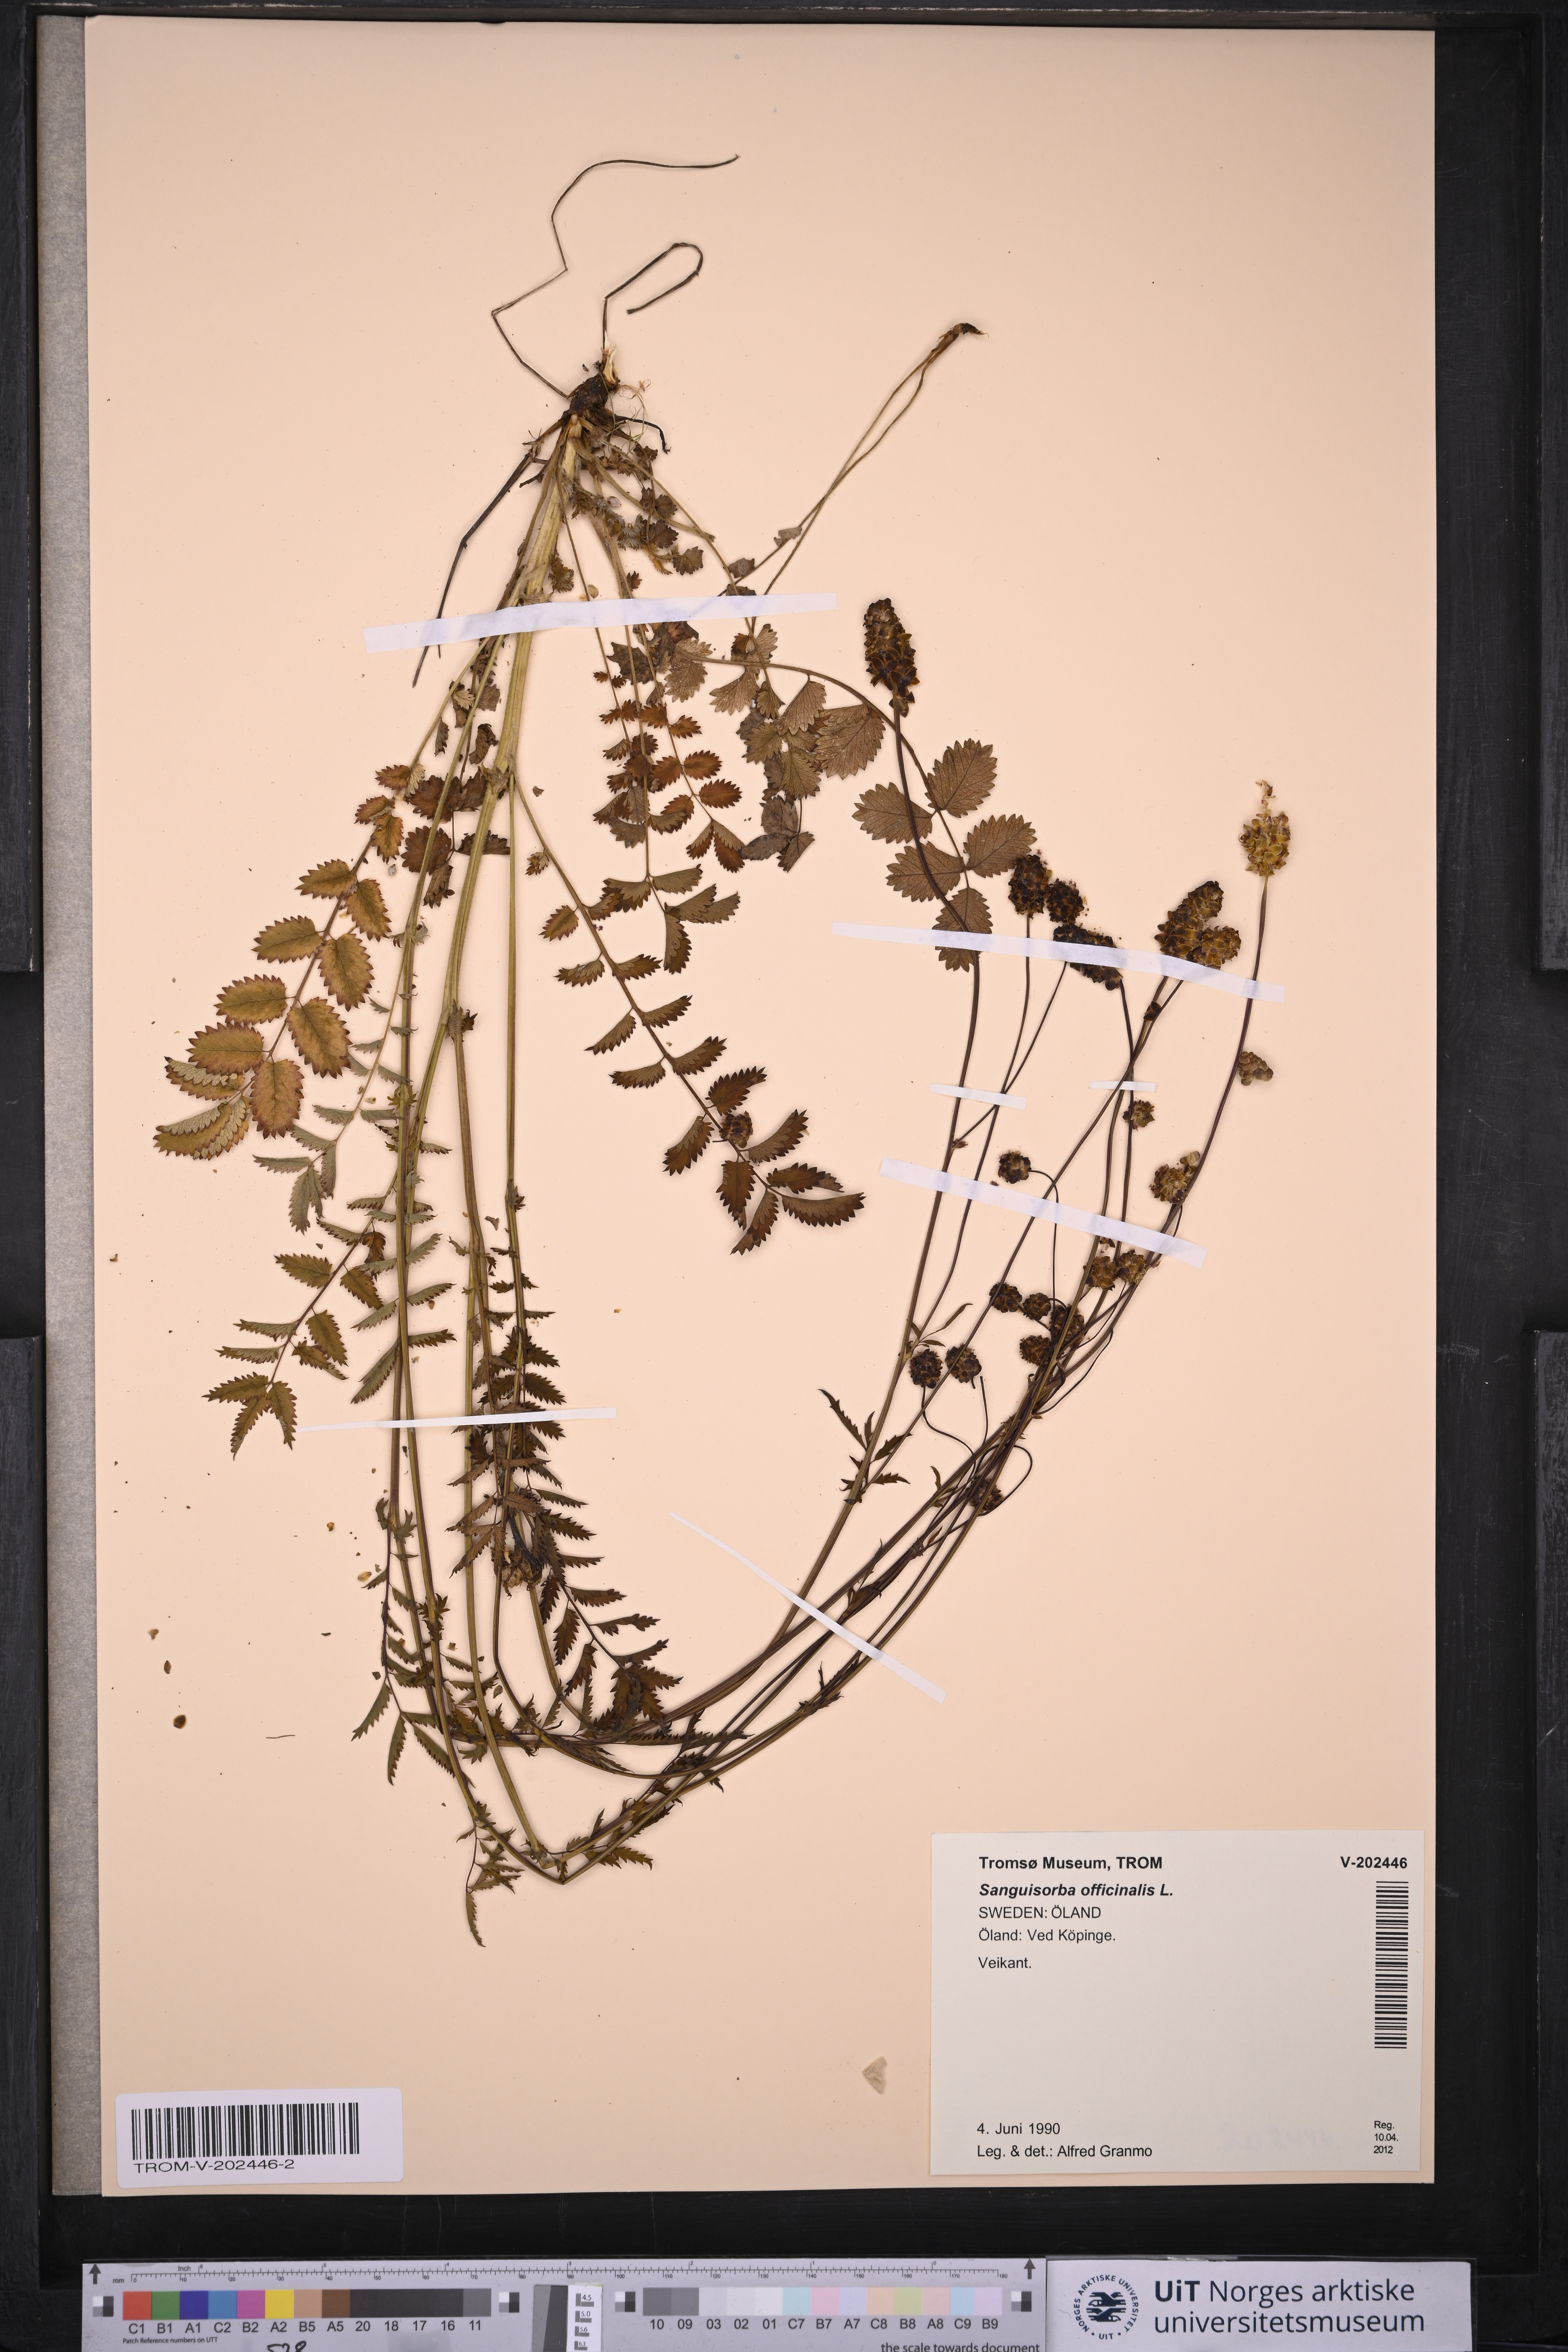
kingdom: Plantae
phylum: Tracheophyta
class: Magnoliopsida
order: Rosales
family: Rosaceae
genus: Sanguisorba
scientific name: Sanguisorba officinalis
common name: Great burnet
